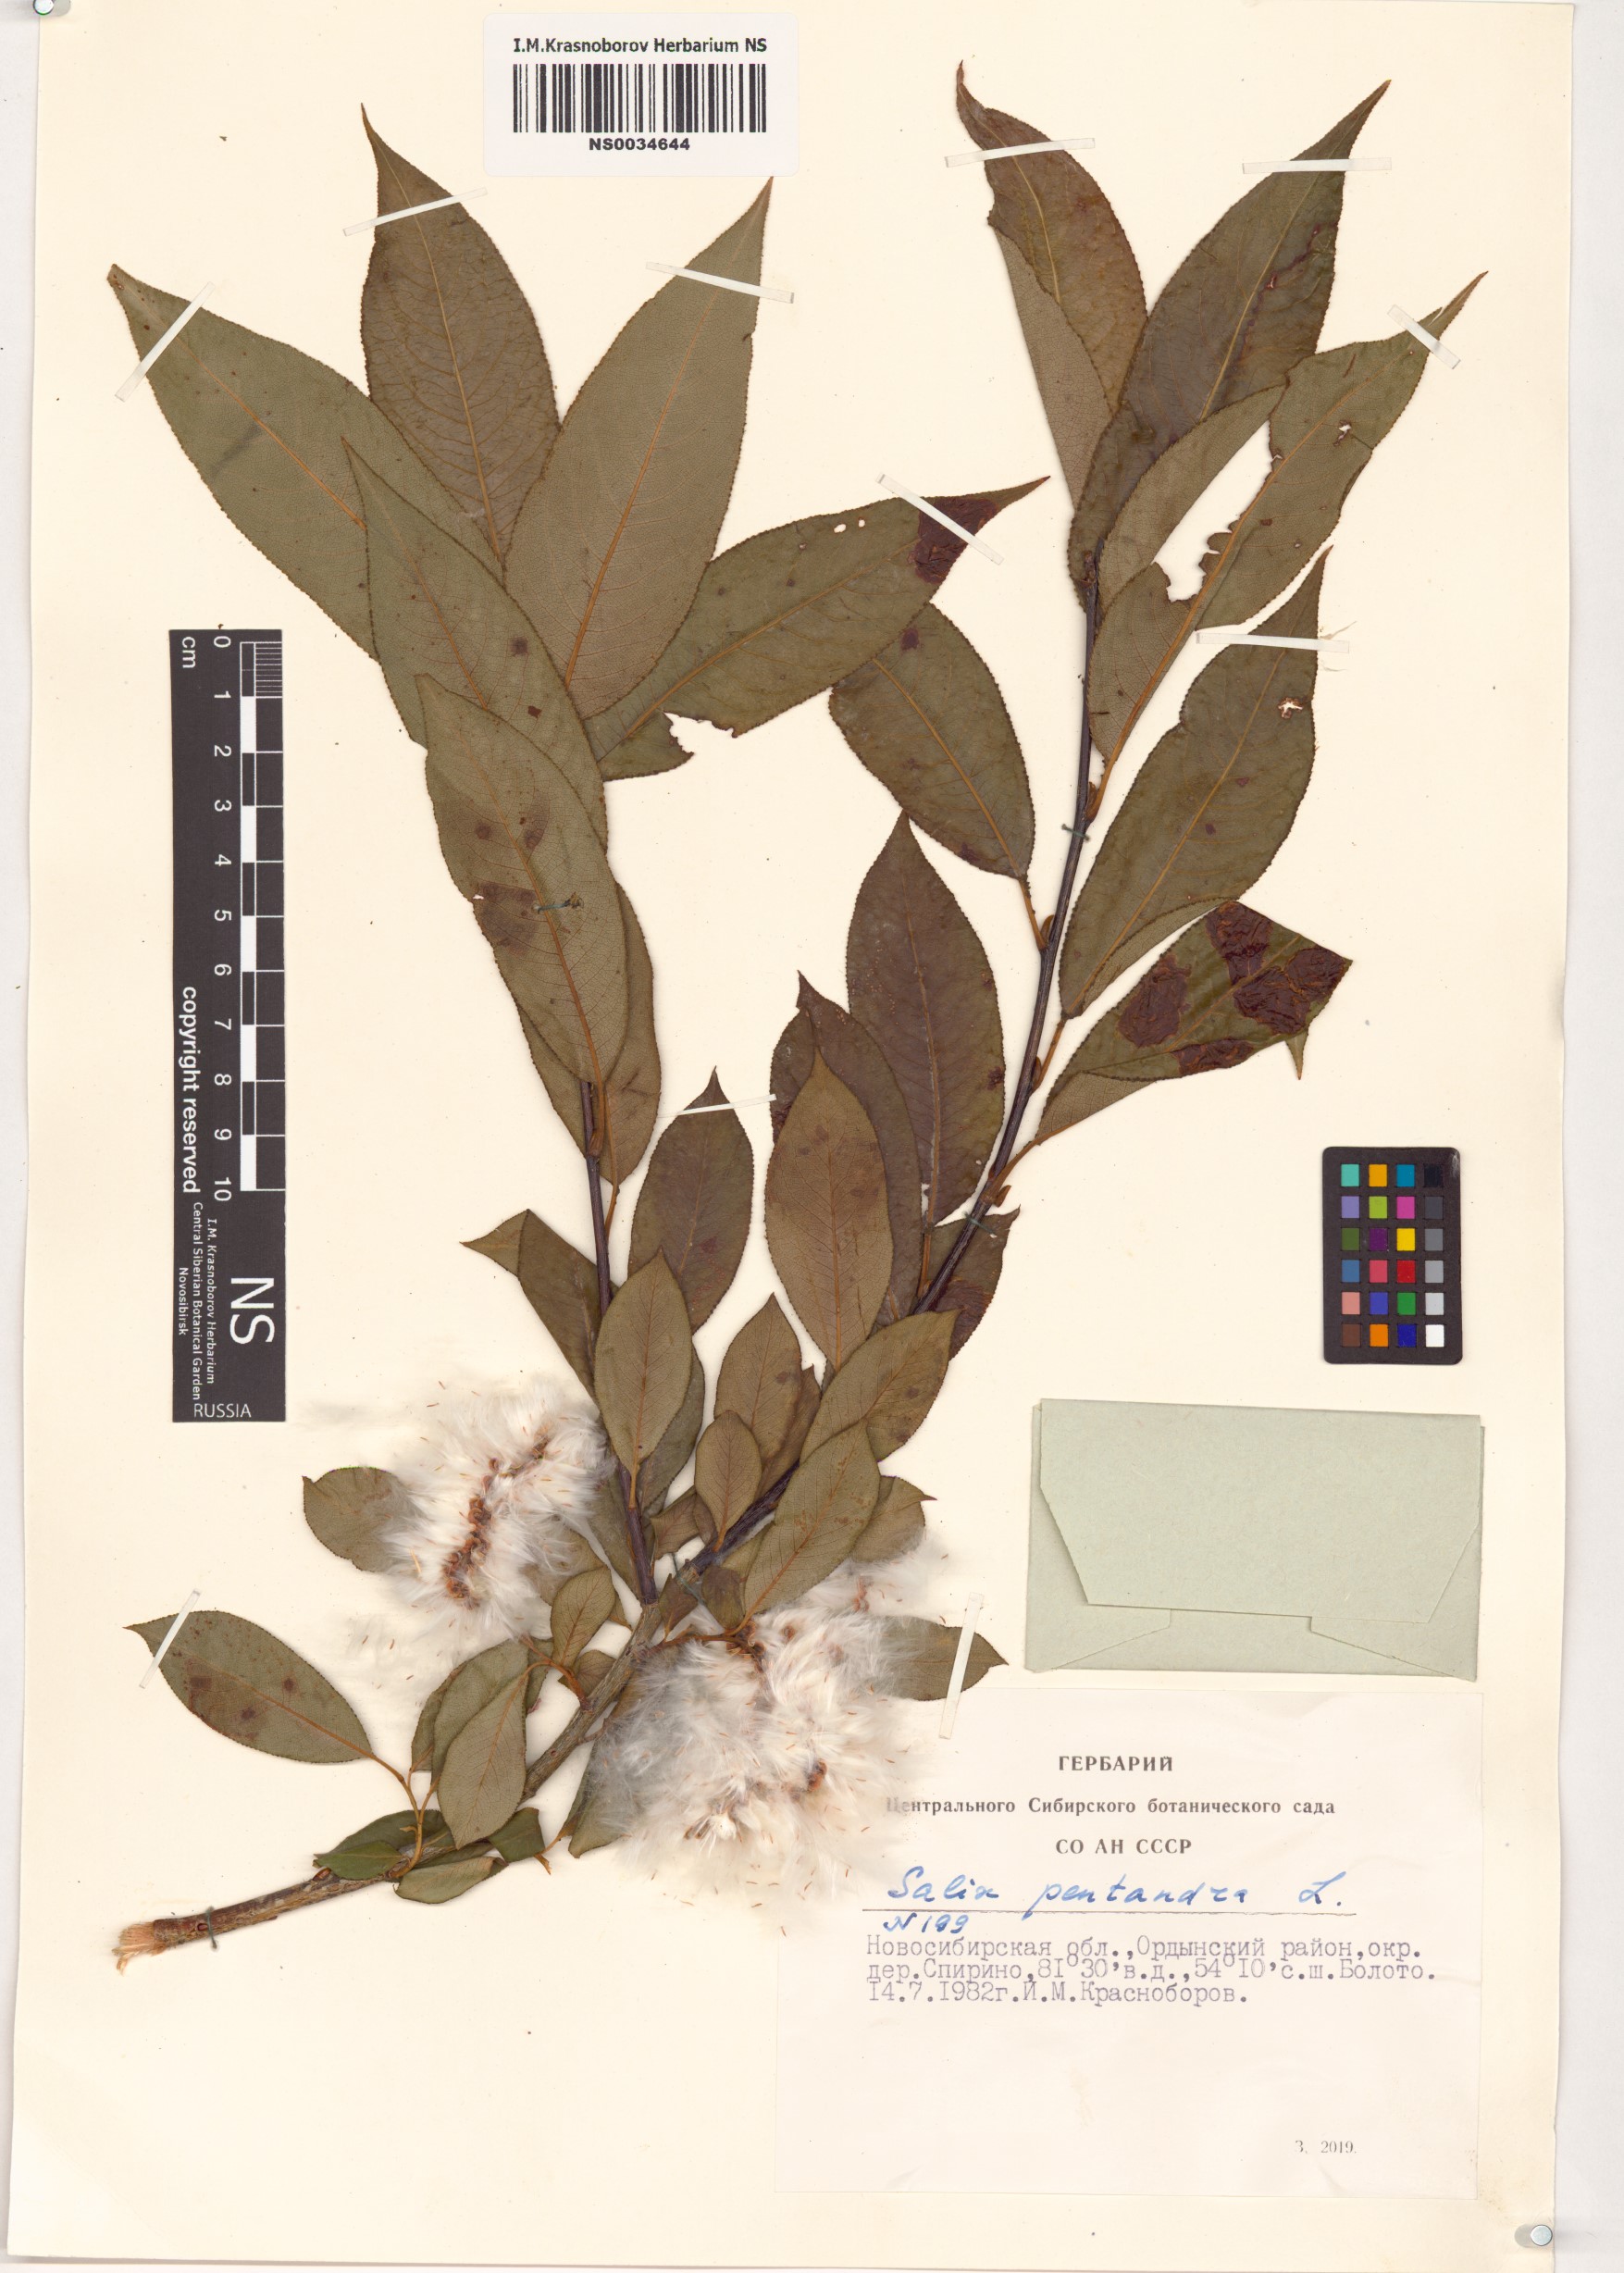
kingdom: Plantae
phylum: Tracheophyta
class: Magnoliopsida
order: Malpighiales
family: Salicaceae
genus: Salix
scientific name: Salix pentandra
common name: Bay willow
